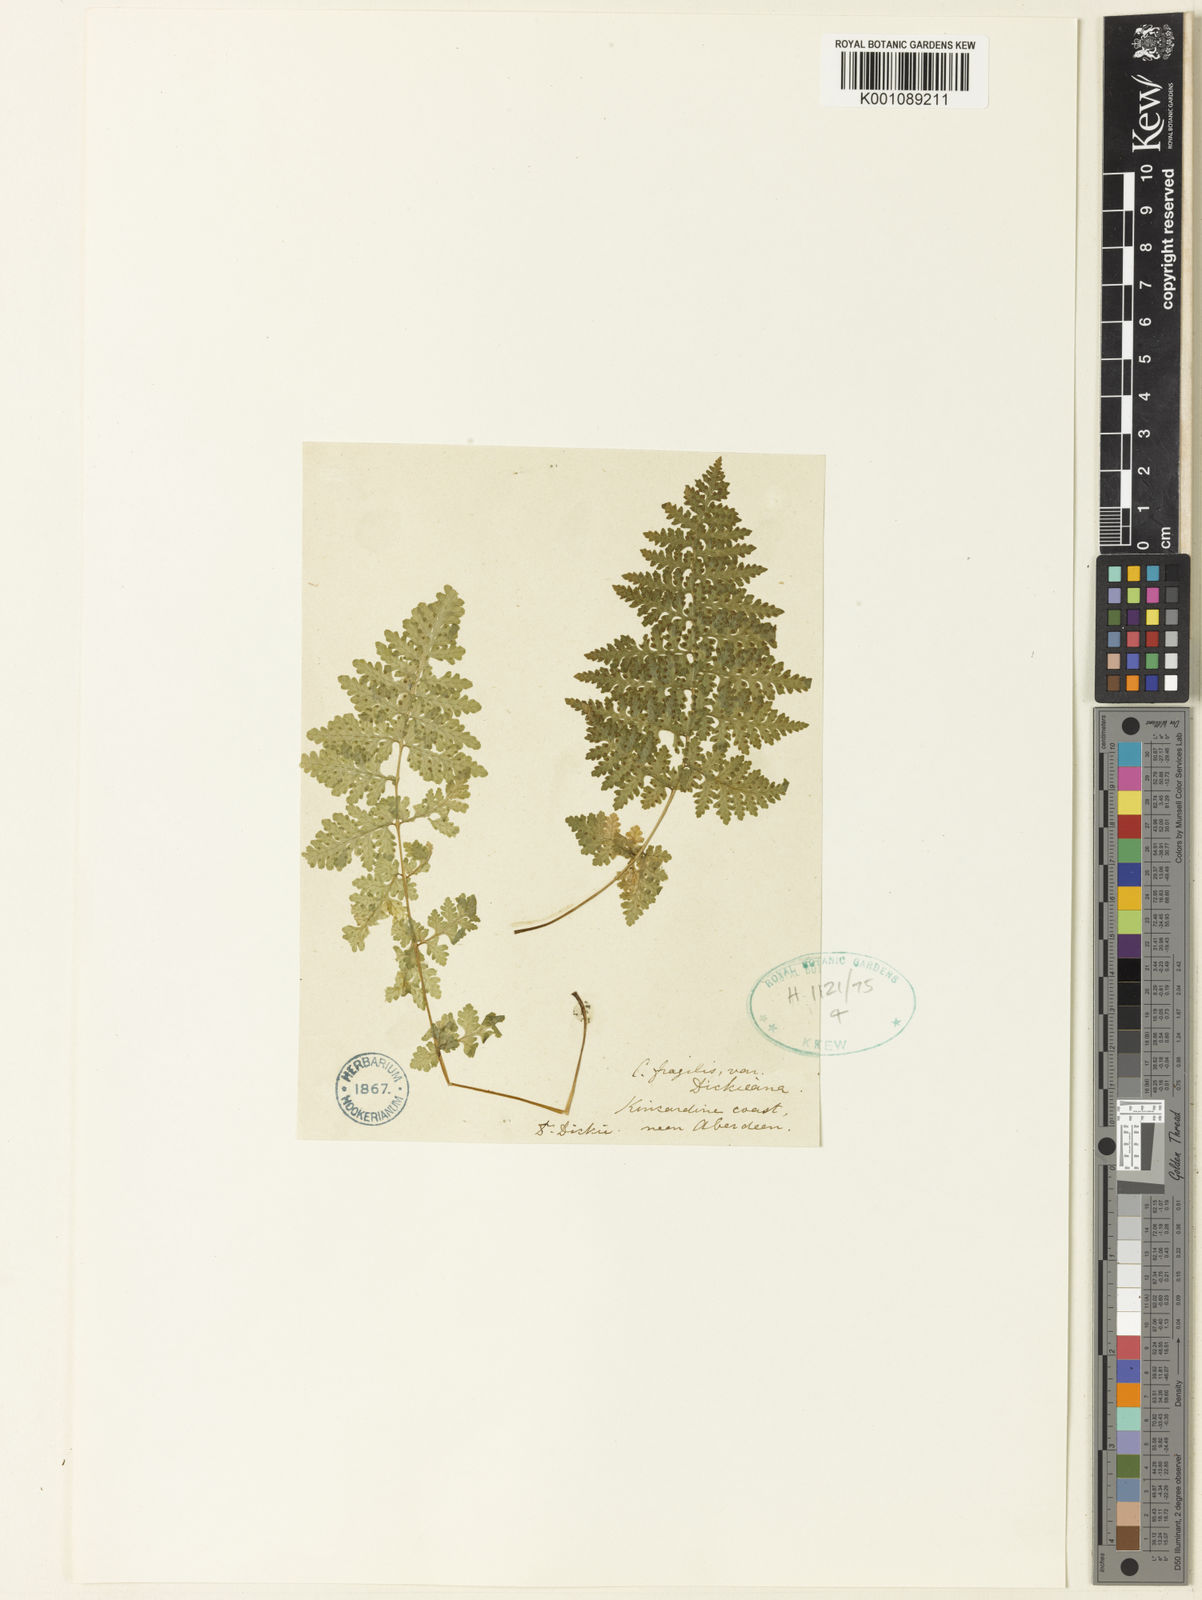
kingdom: Plantae
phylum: Tracheophyta
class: Polypodiopsida
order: Polypodiales
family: Cystopteridaceae
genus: Cystopteris
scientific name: Cystopteris fragilis
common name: Brittle bladder fern
